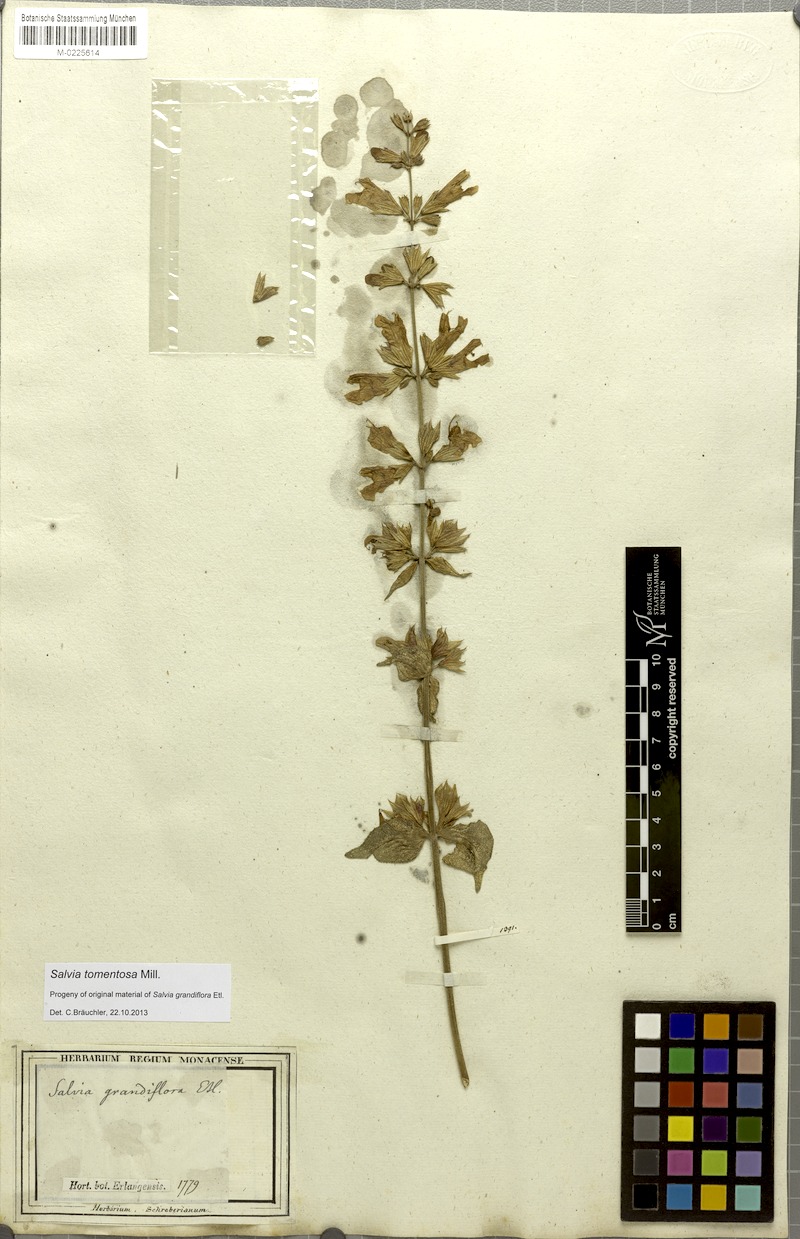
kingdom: Plantae
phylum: Tracheophyta
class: Magnoliopsida
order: Lamiales
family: Lamiaceae
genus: Salvia
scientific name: Salvia tomentosa
